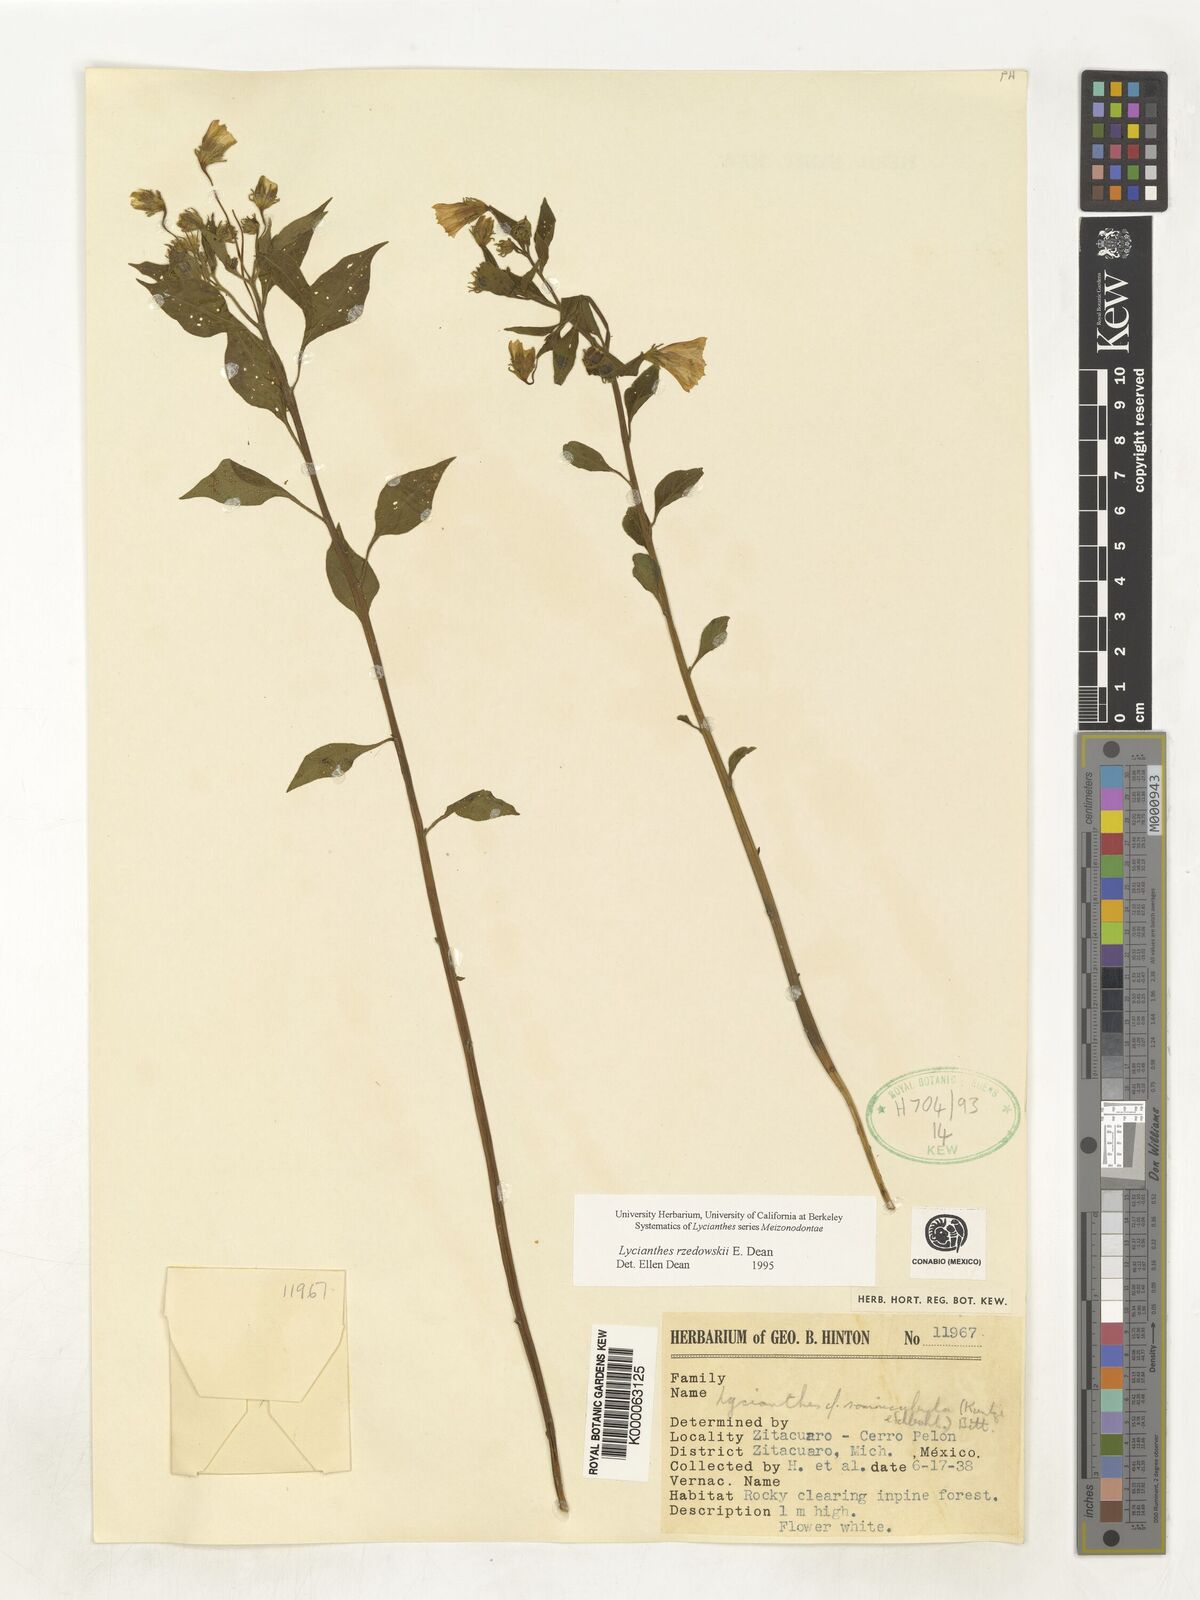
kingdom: Plantae
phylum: Tracheophyta
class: Magnoliopsida
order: Solanales
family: Solanaceae
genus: Lycianthes
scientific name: Lycianthes rzedowskii
